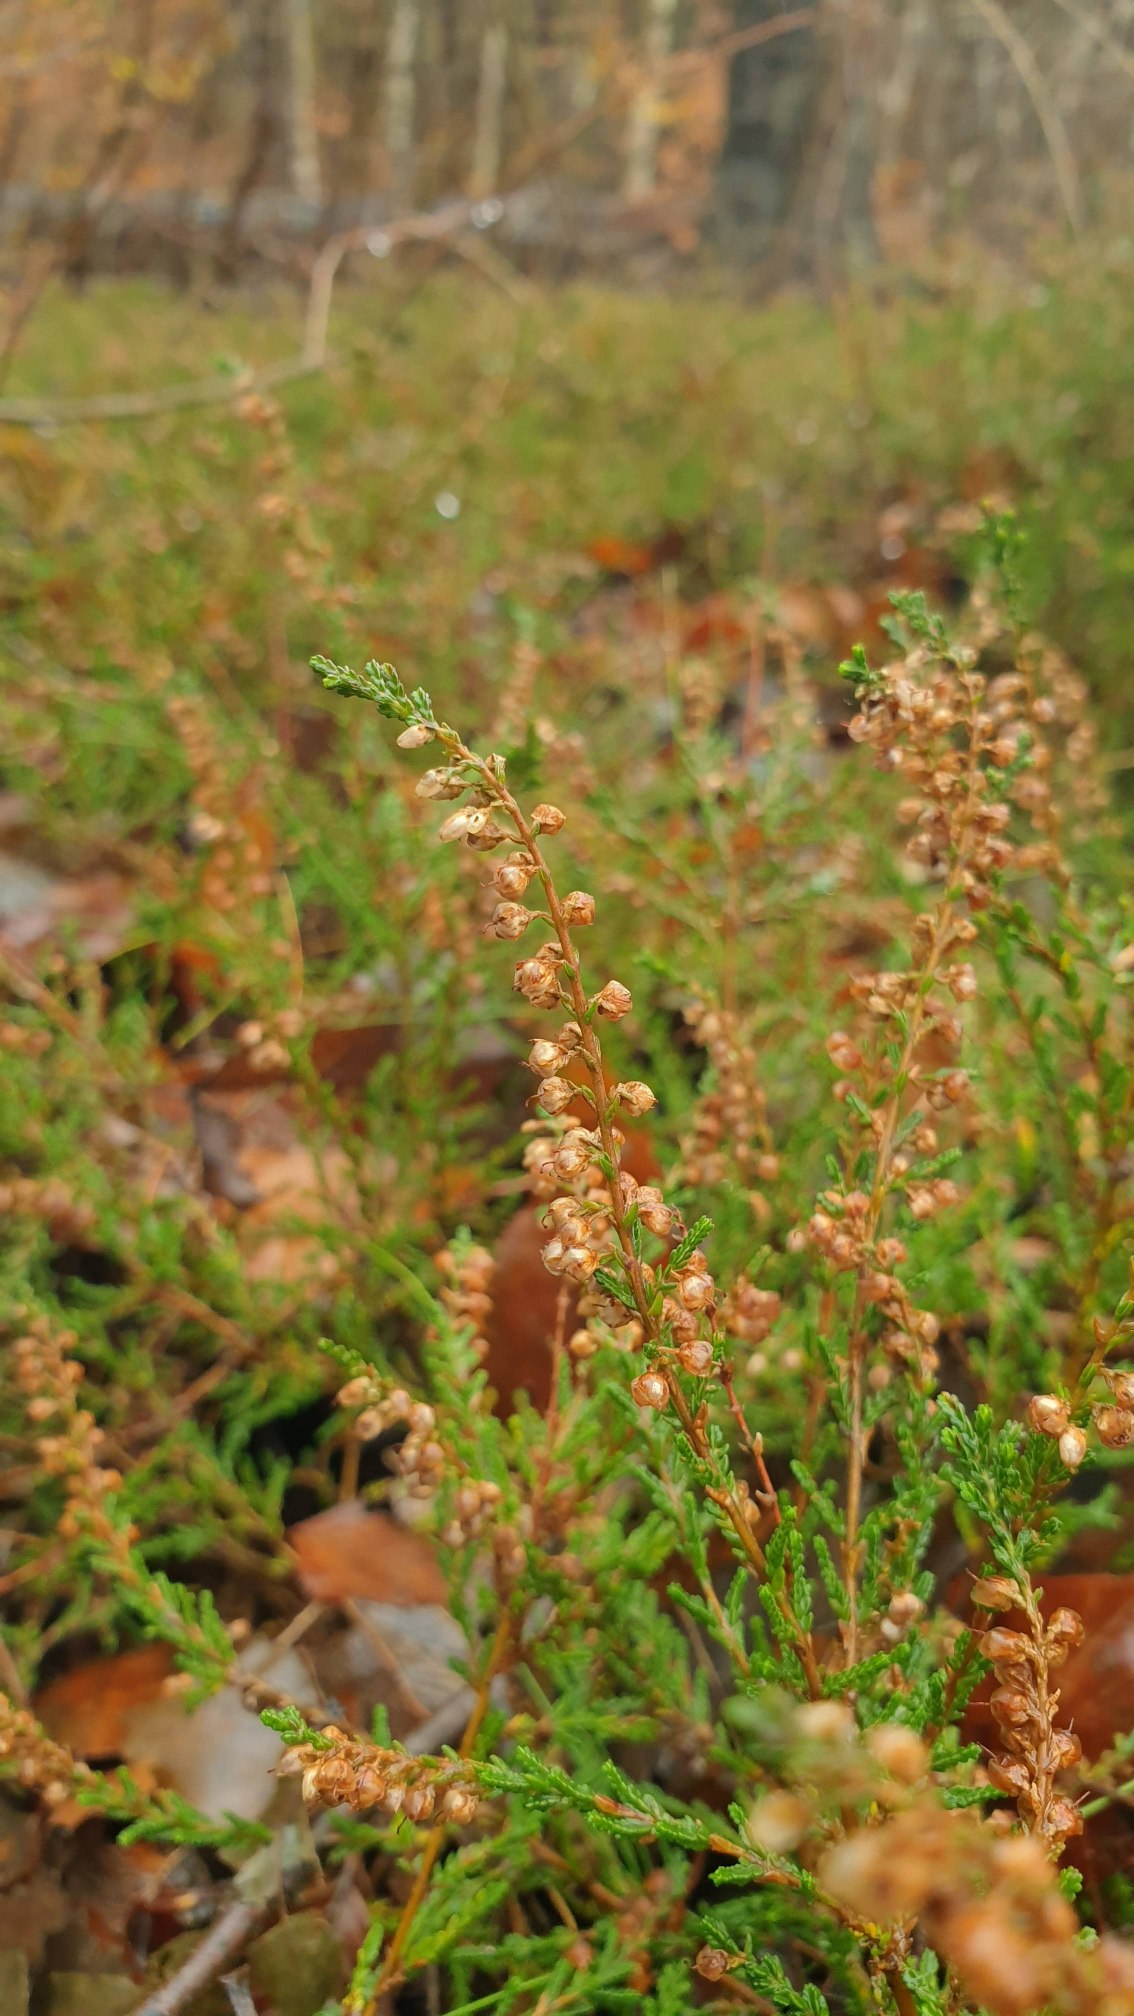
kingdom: Plantae
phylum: Tracheophyta
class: Magnoliopsida
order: Ericales
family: Ericaceae
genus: Calluna
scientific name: Calluna vulgaris
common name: Hedelyng
